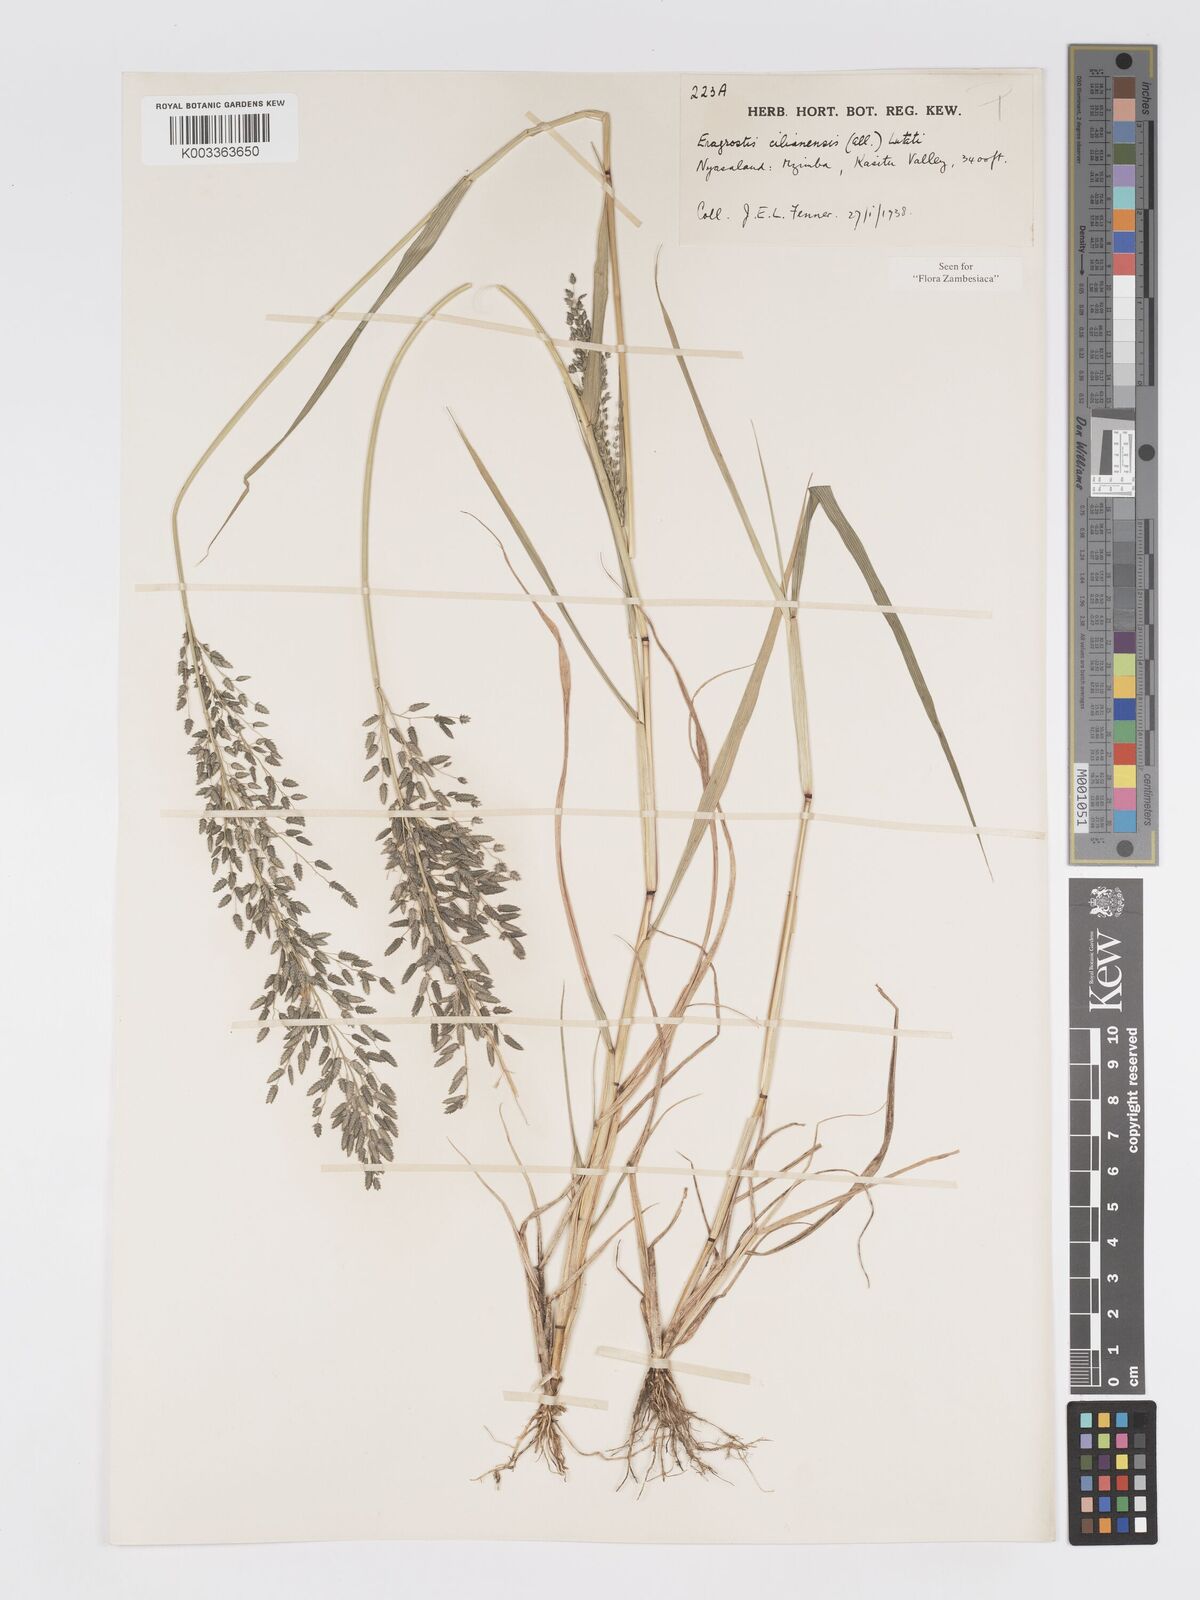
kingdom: Plantae
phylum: Tracheophyta
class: Liliopsida
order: Poales
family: Poaceae
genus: Eragrostis
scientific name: Eragrostis cilianensis
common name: Stinkgrass
